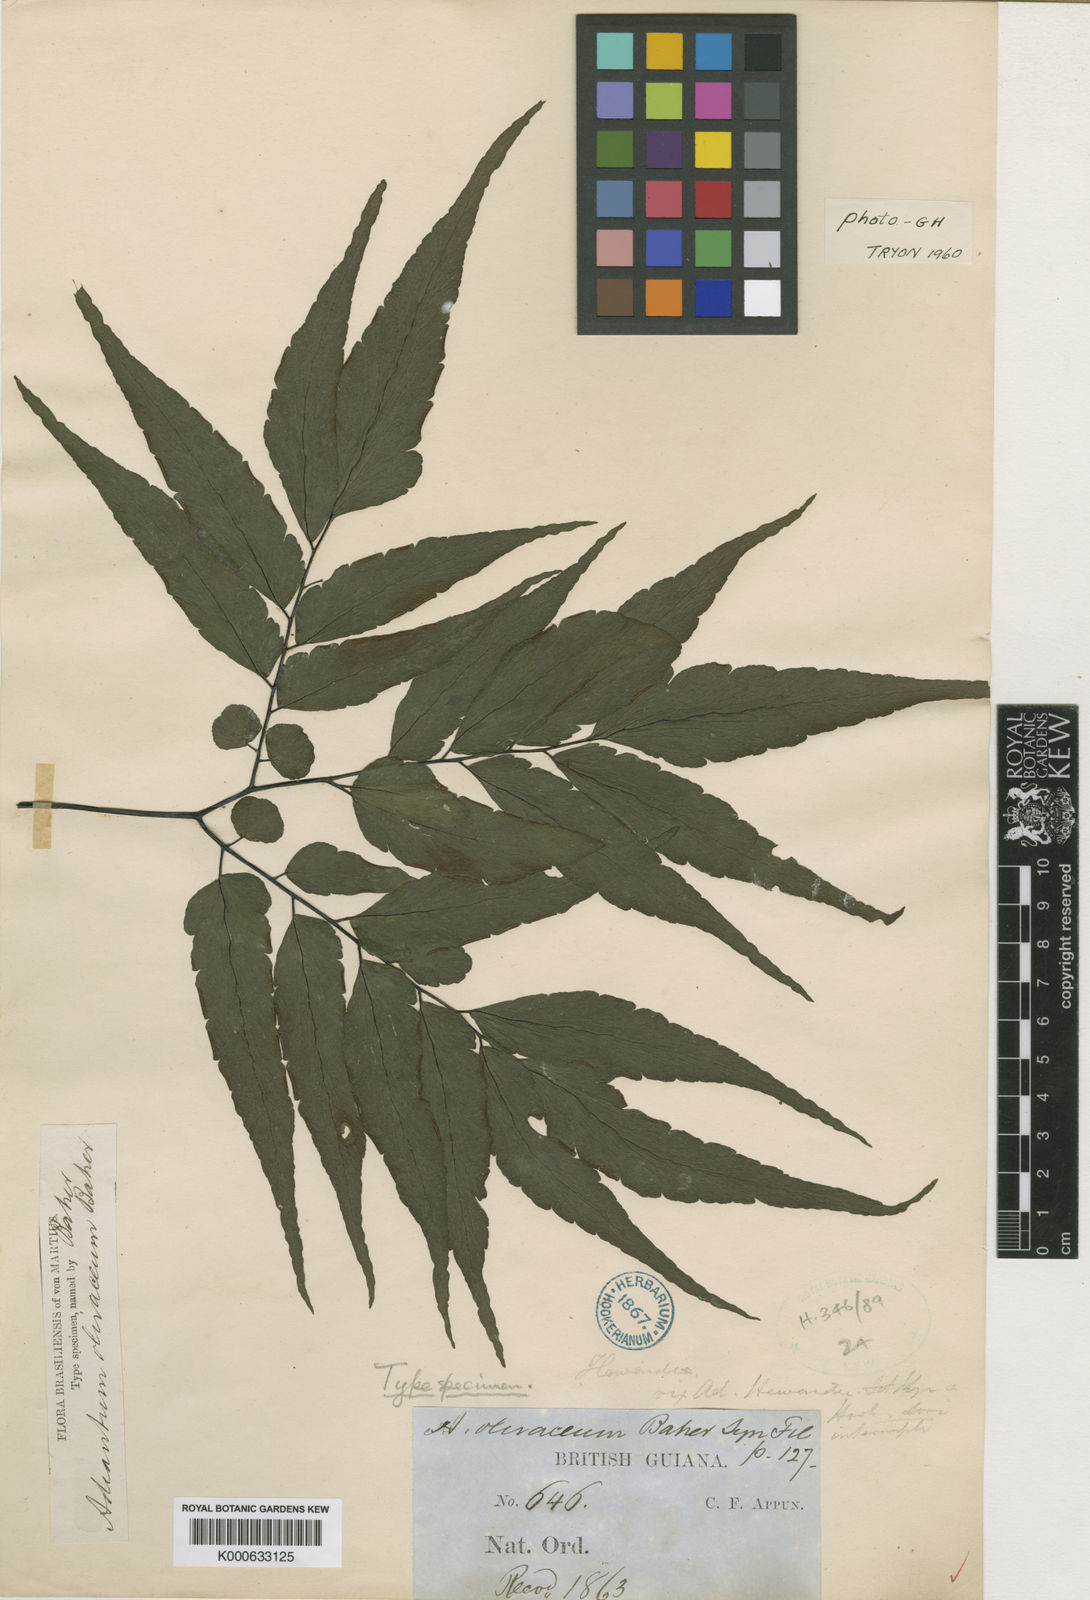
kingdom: Plantae
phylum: Tracheophyta
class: Polypodiopsida
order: Polypodiales
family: Pteridaceae
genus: Adiantum
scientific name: Adiantum olivaceum
